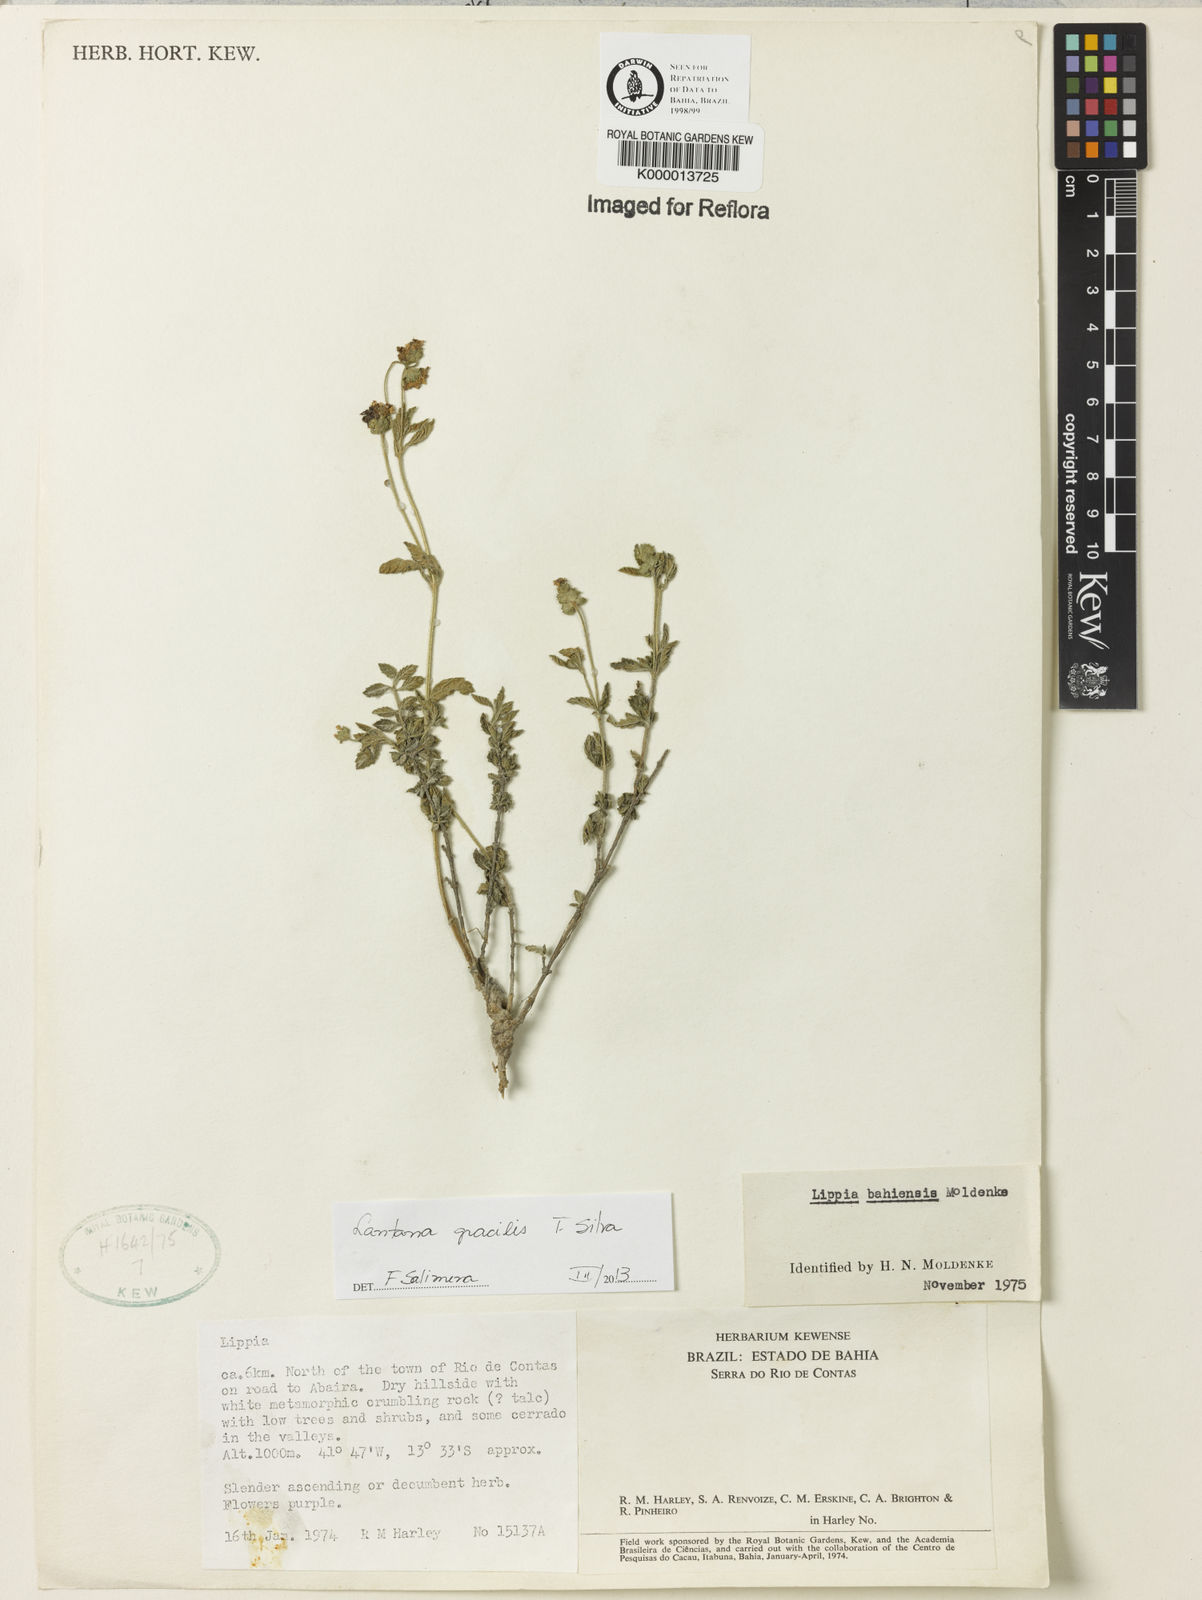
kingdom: Plantae
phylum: Tracheophyta
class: Magnoliopsida
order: Lamiales
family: Verbenaceae
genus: Lantana
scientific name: Lantana gracilis
